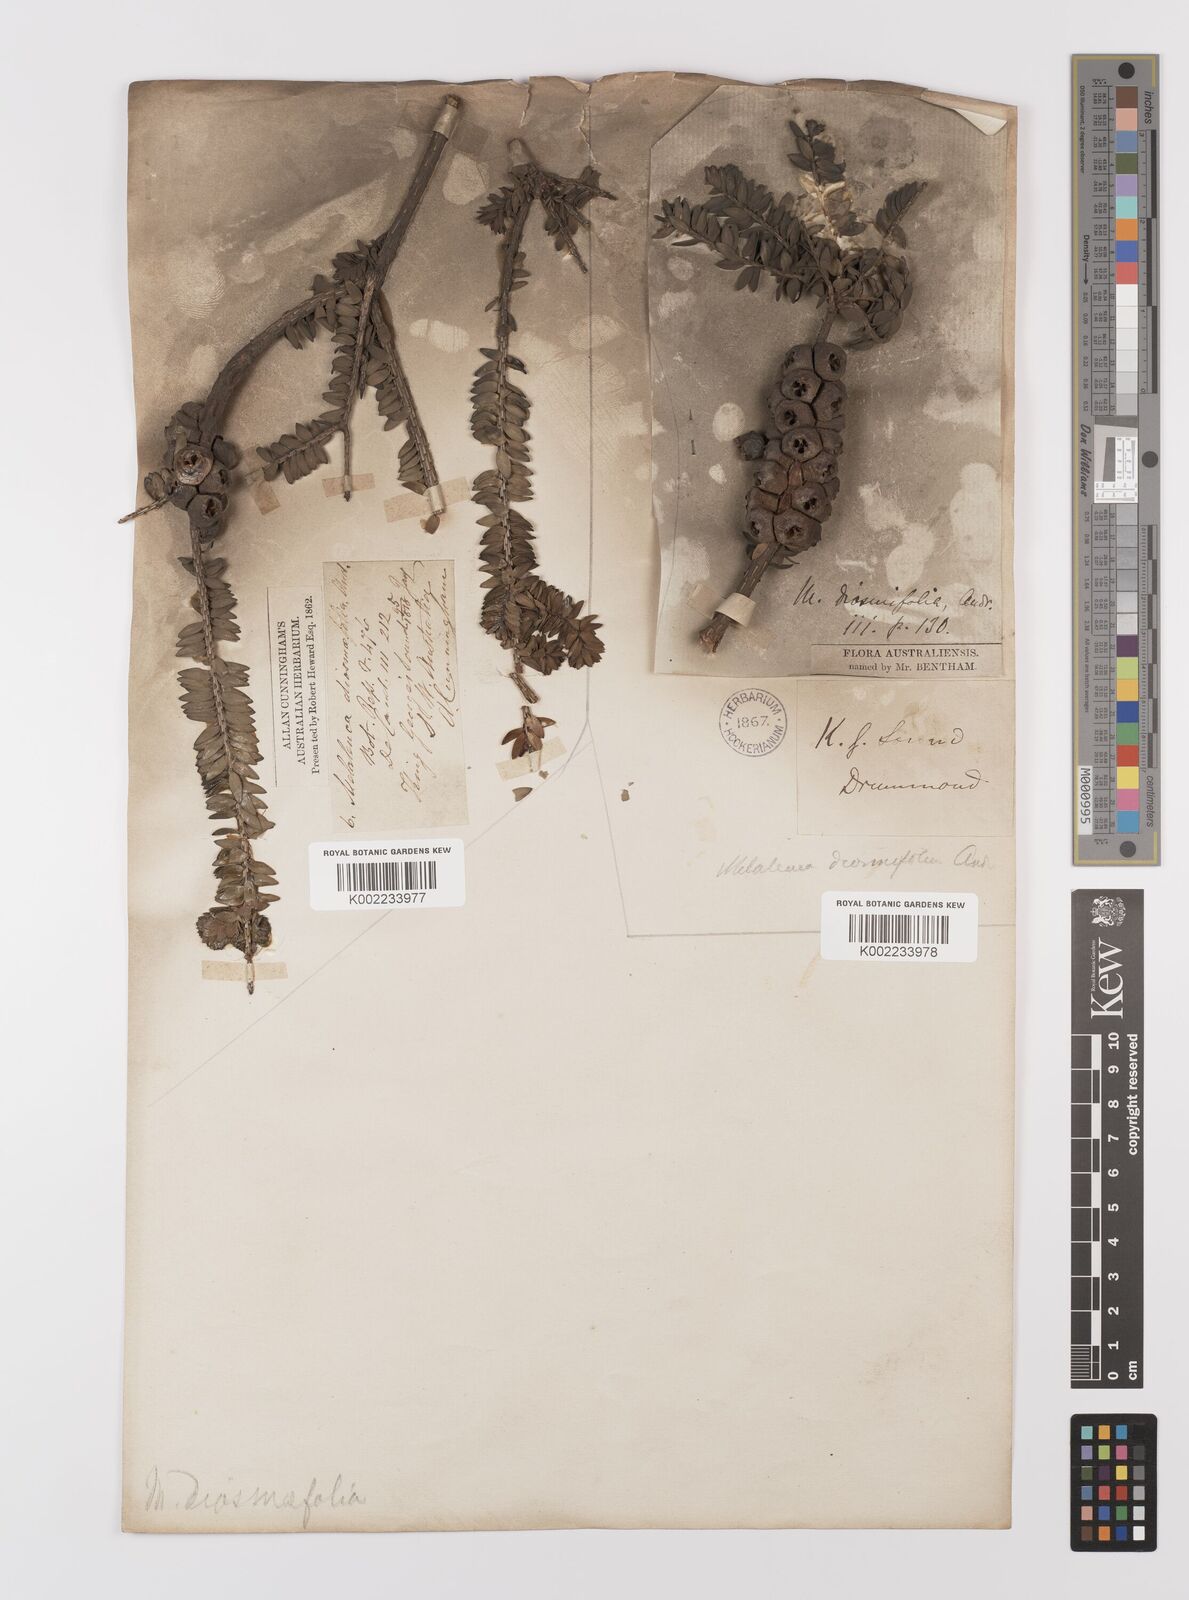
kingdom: Plantae
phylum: Tracheophyta
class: Magnoliopsida
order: Myrtales
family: Myrtaceae
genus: Melaleuca
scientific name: Melaleuca diosmifolia
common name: Green honey myrtle
